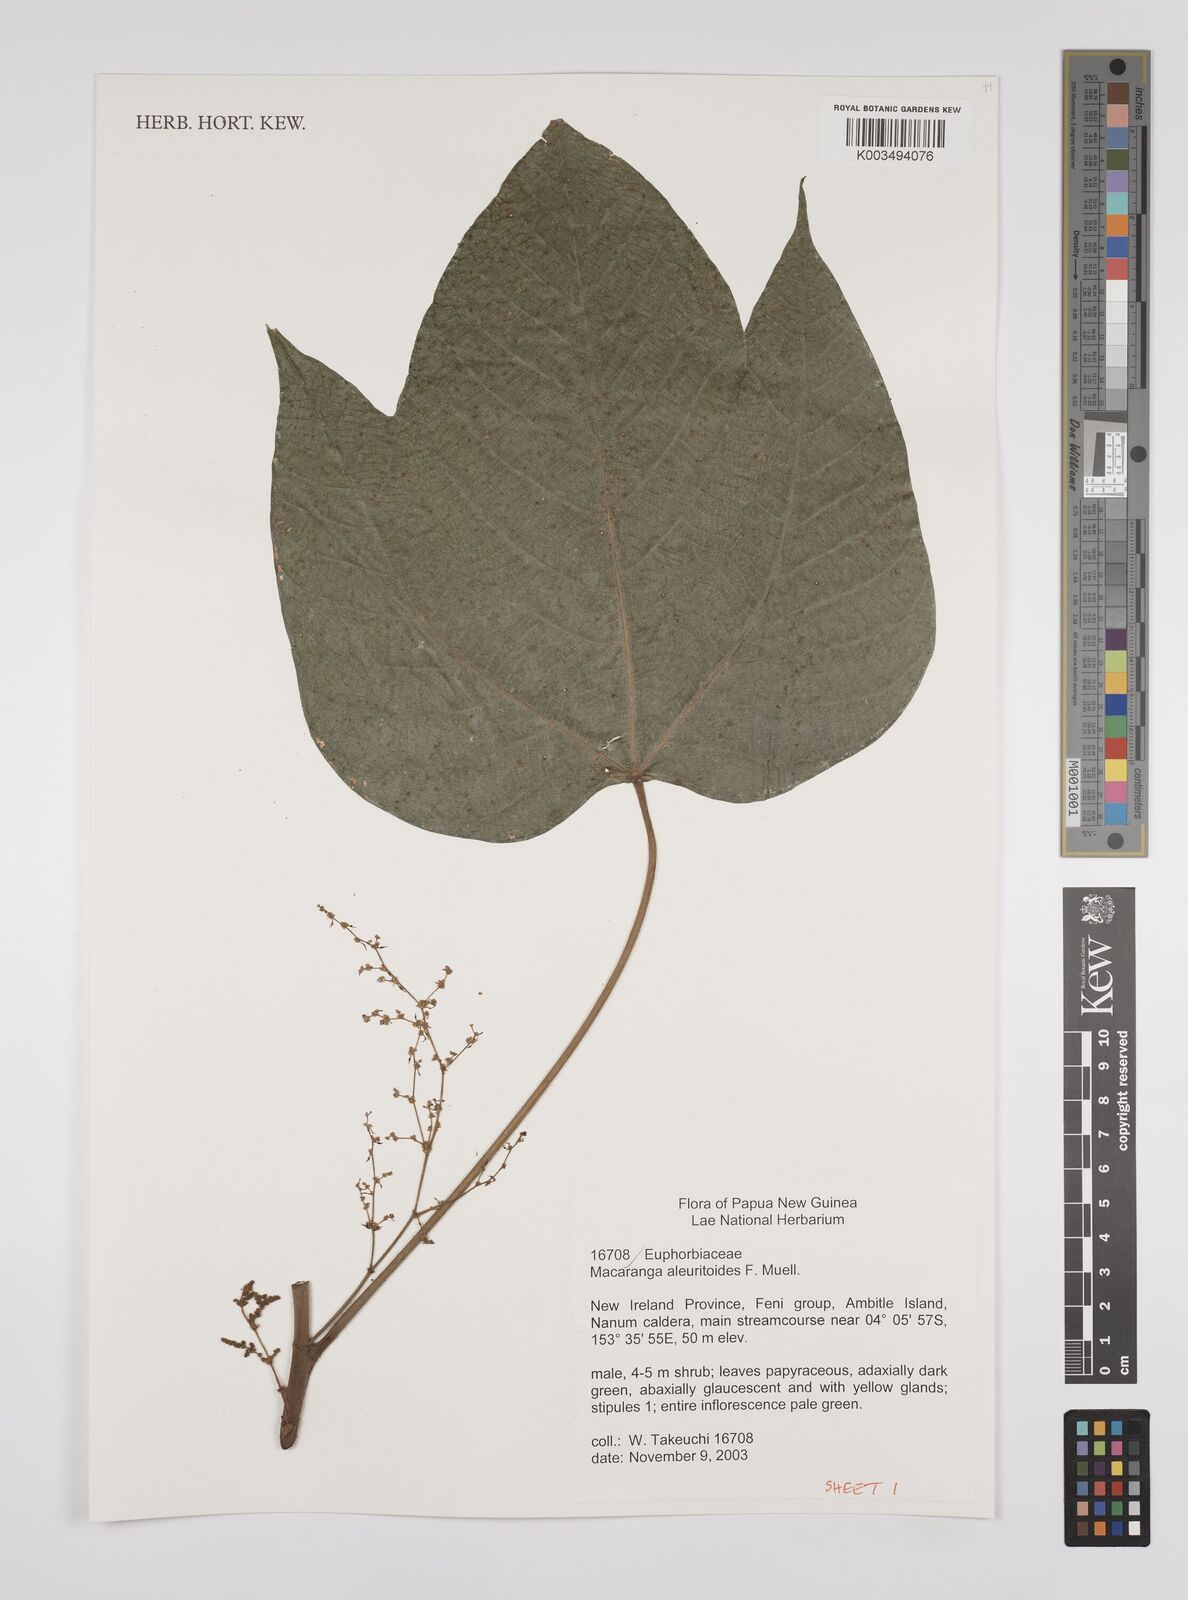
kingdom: Plantae
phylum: Tracheophyta
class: Magnoliopsida
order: Malpighiales
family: Euphorbiaceae
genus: Macaranga
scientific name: Macaranga aleuritoides
